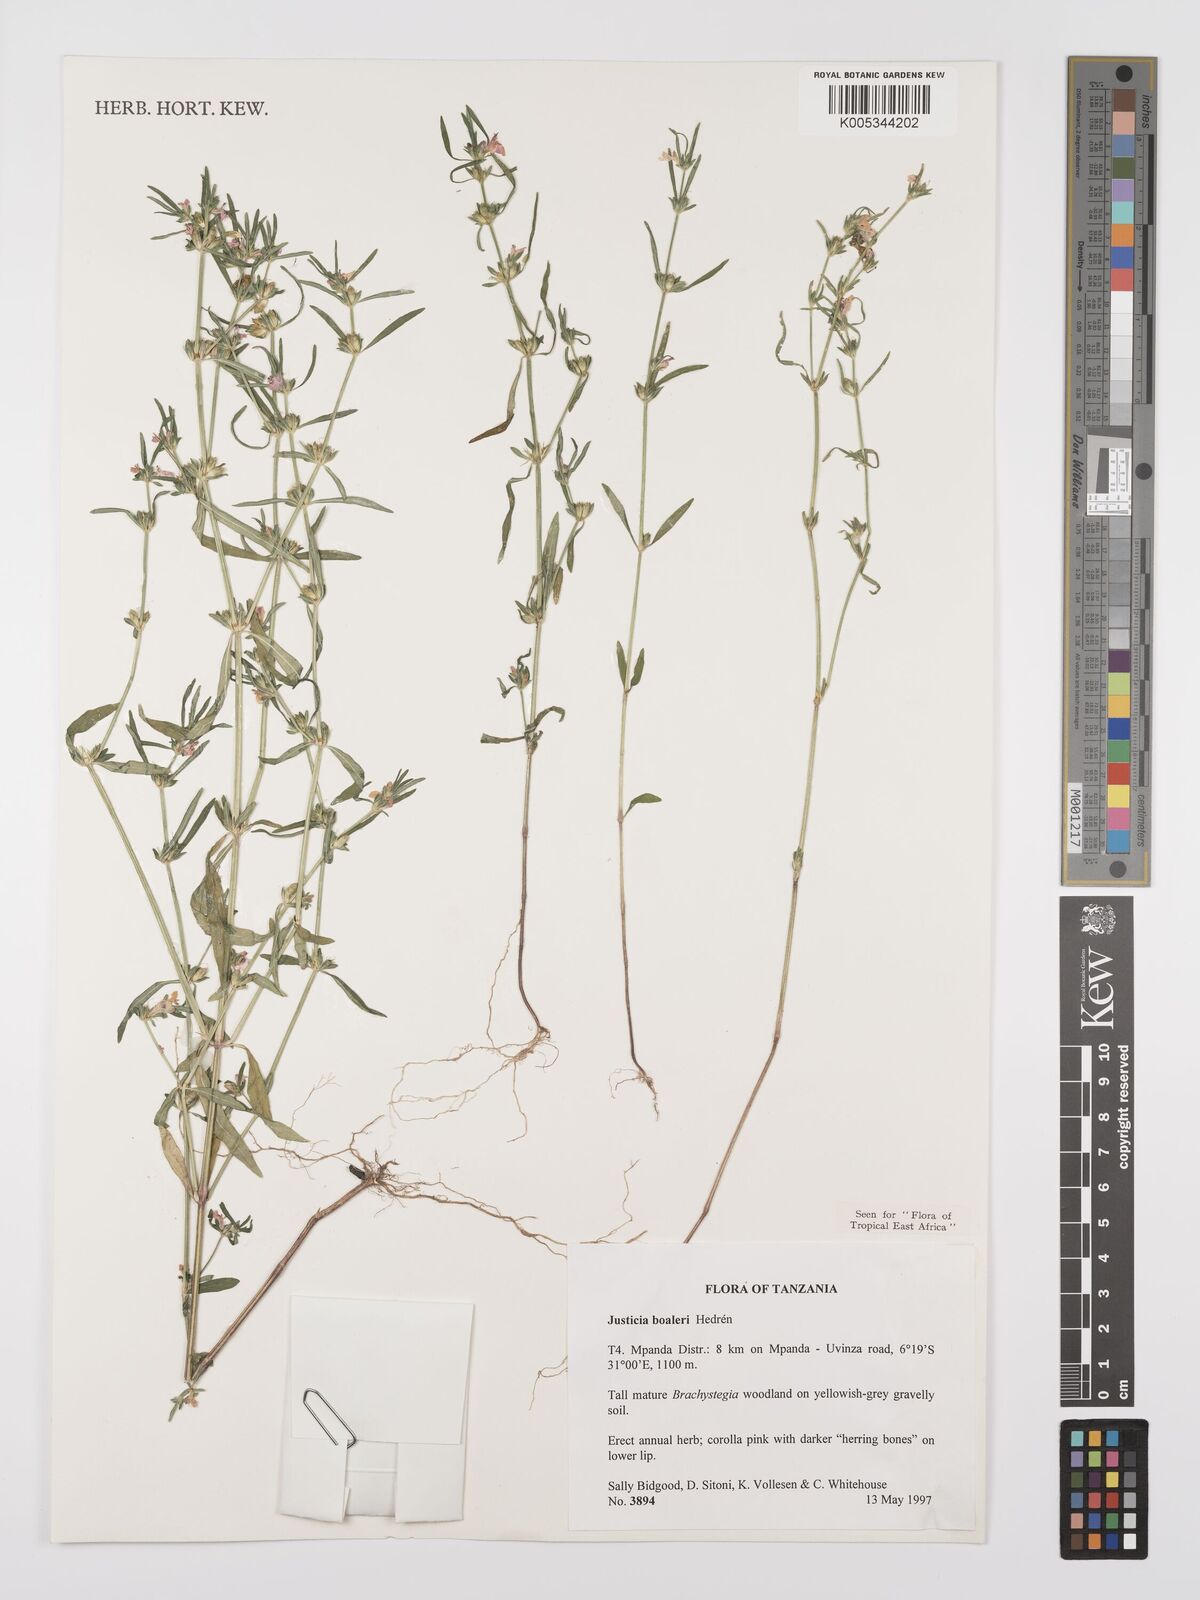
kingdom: Plantae
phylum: Tracheophyta
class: Magnoliopsida
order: Lamiales
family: Acanthaceae
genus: Justicia
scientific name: Justicia boaleri
